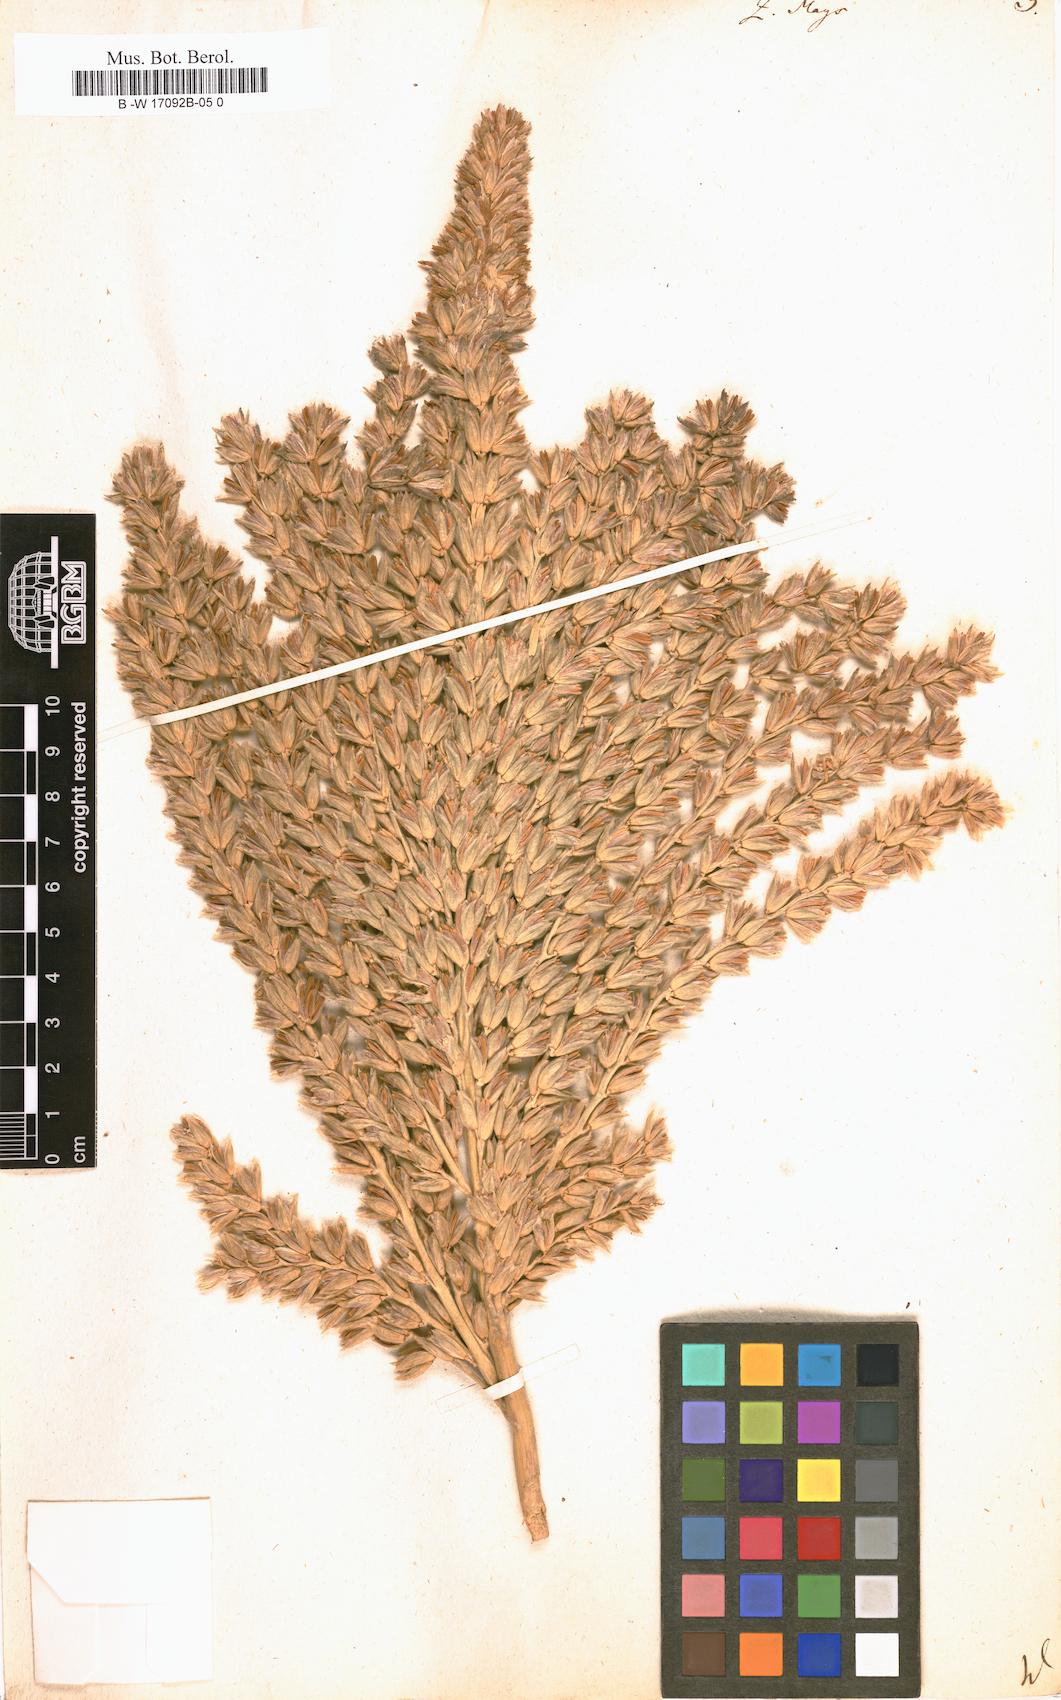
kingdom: Plantae
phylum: Tracheophyta
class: Liliopsida
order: Poales
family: Poaceae
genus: Zea
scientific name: Zea mays
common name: Maize
